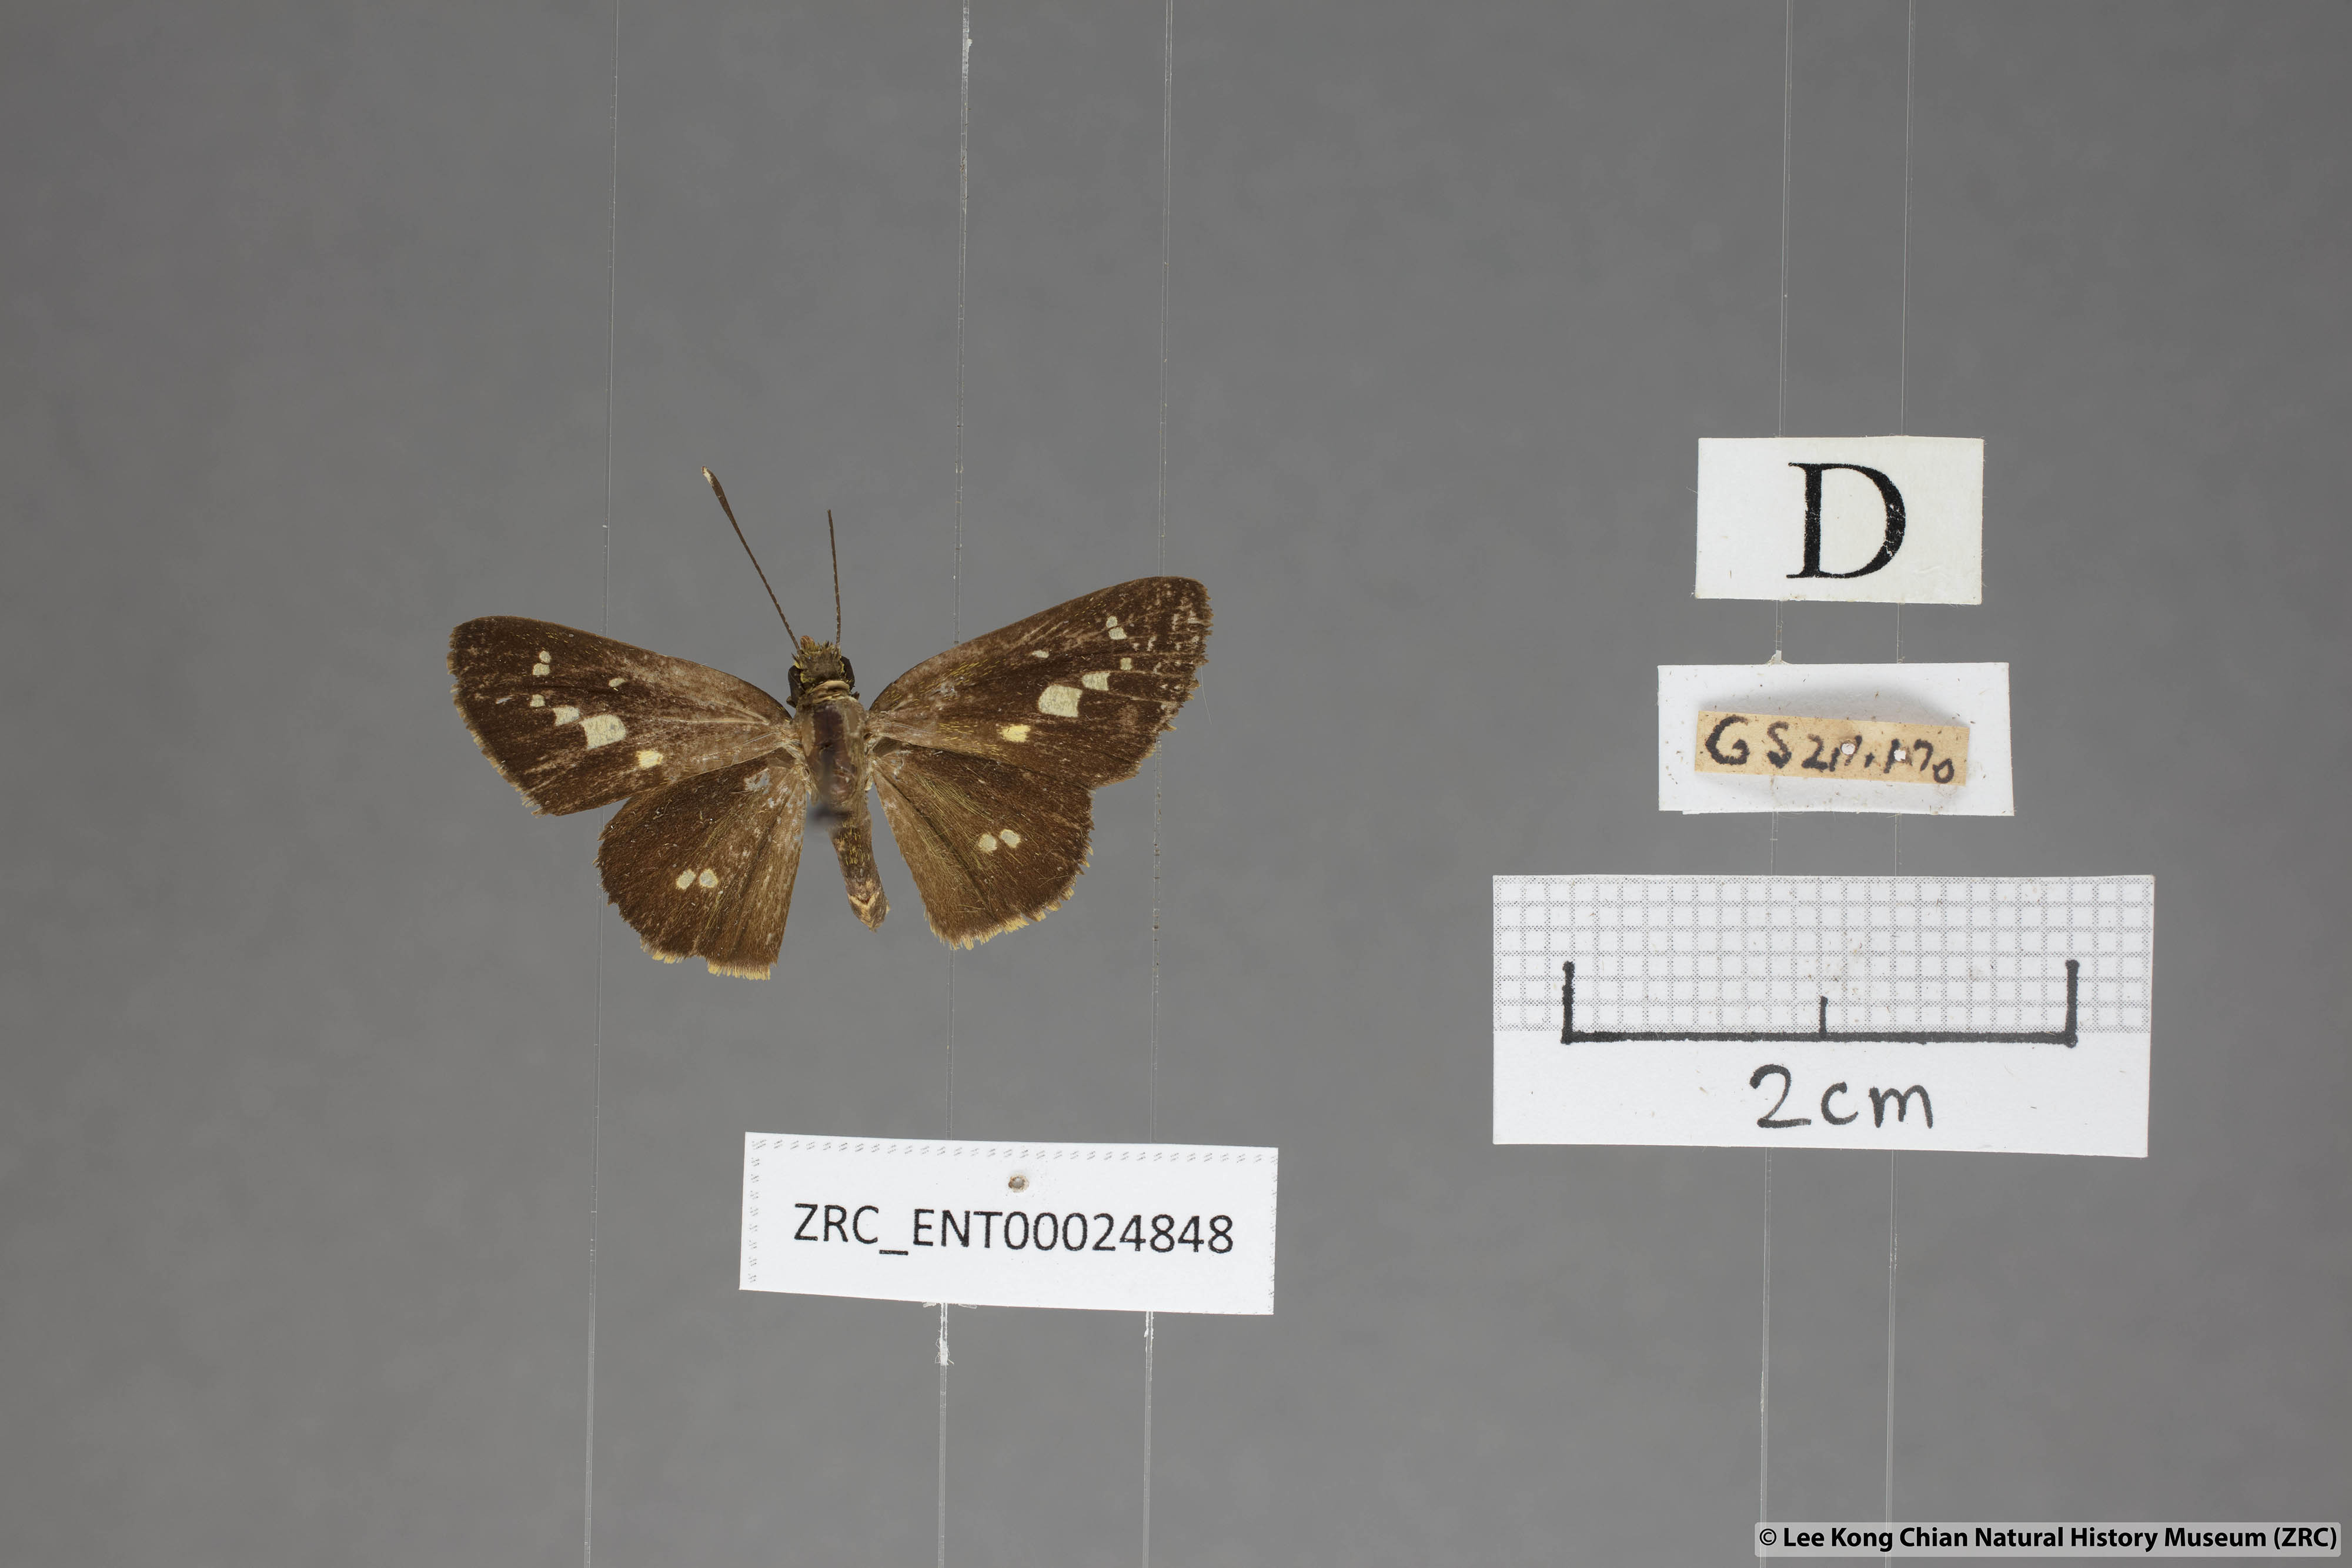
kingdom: Animalia
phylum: Arthropoda
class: Insecta
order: Lepidoptera
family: Hesperiidae
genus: Isma
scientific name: Isma bononia
